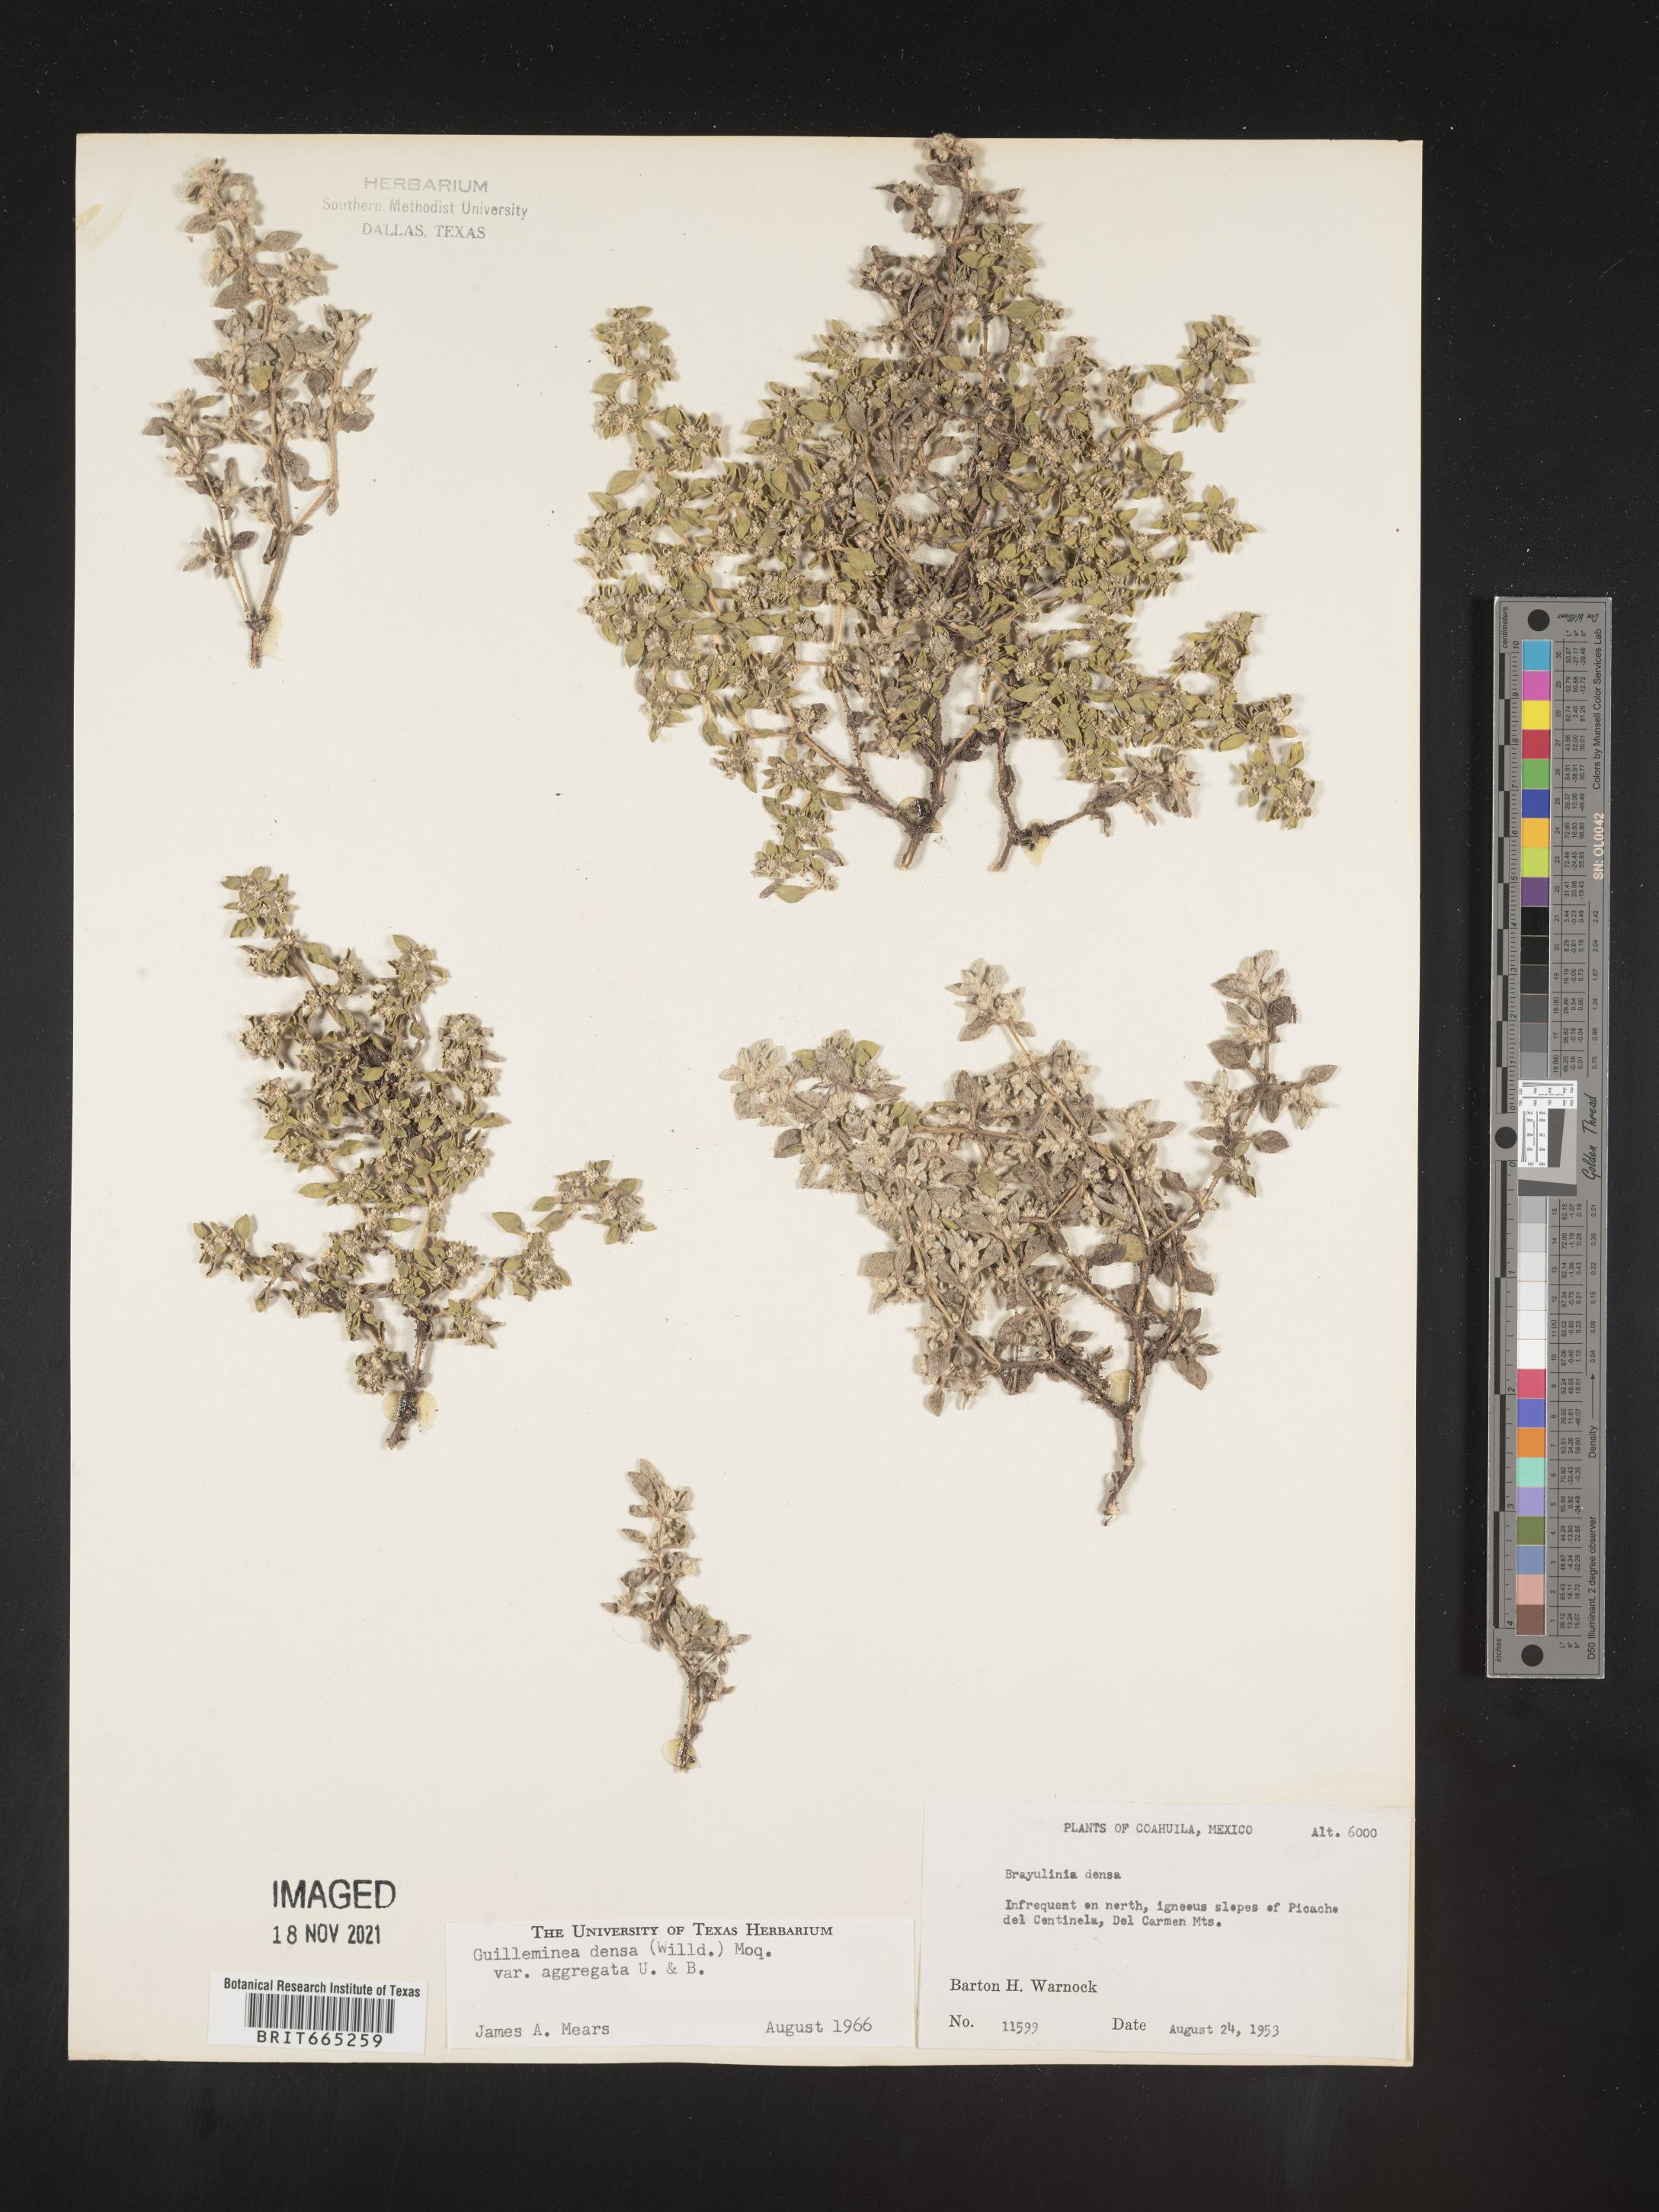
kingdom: Plantae
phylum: Tracheophyta
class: Magnoliopsida
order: Caryophyllales
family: Amaranthaceae
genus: Guilleminea
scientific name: Guilleminea densa
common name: Small matweed
